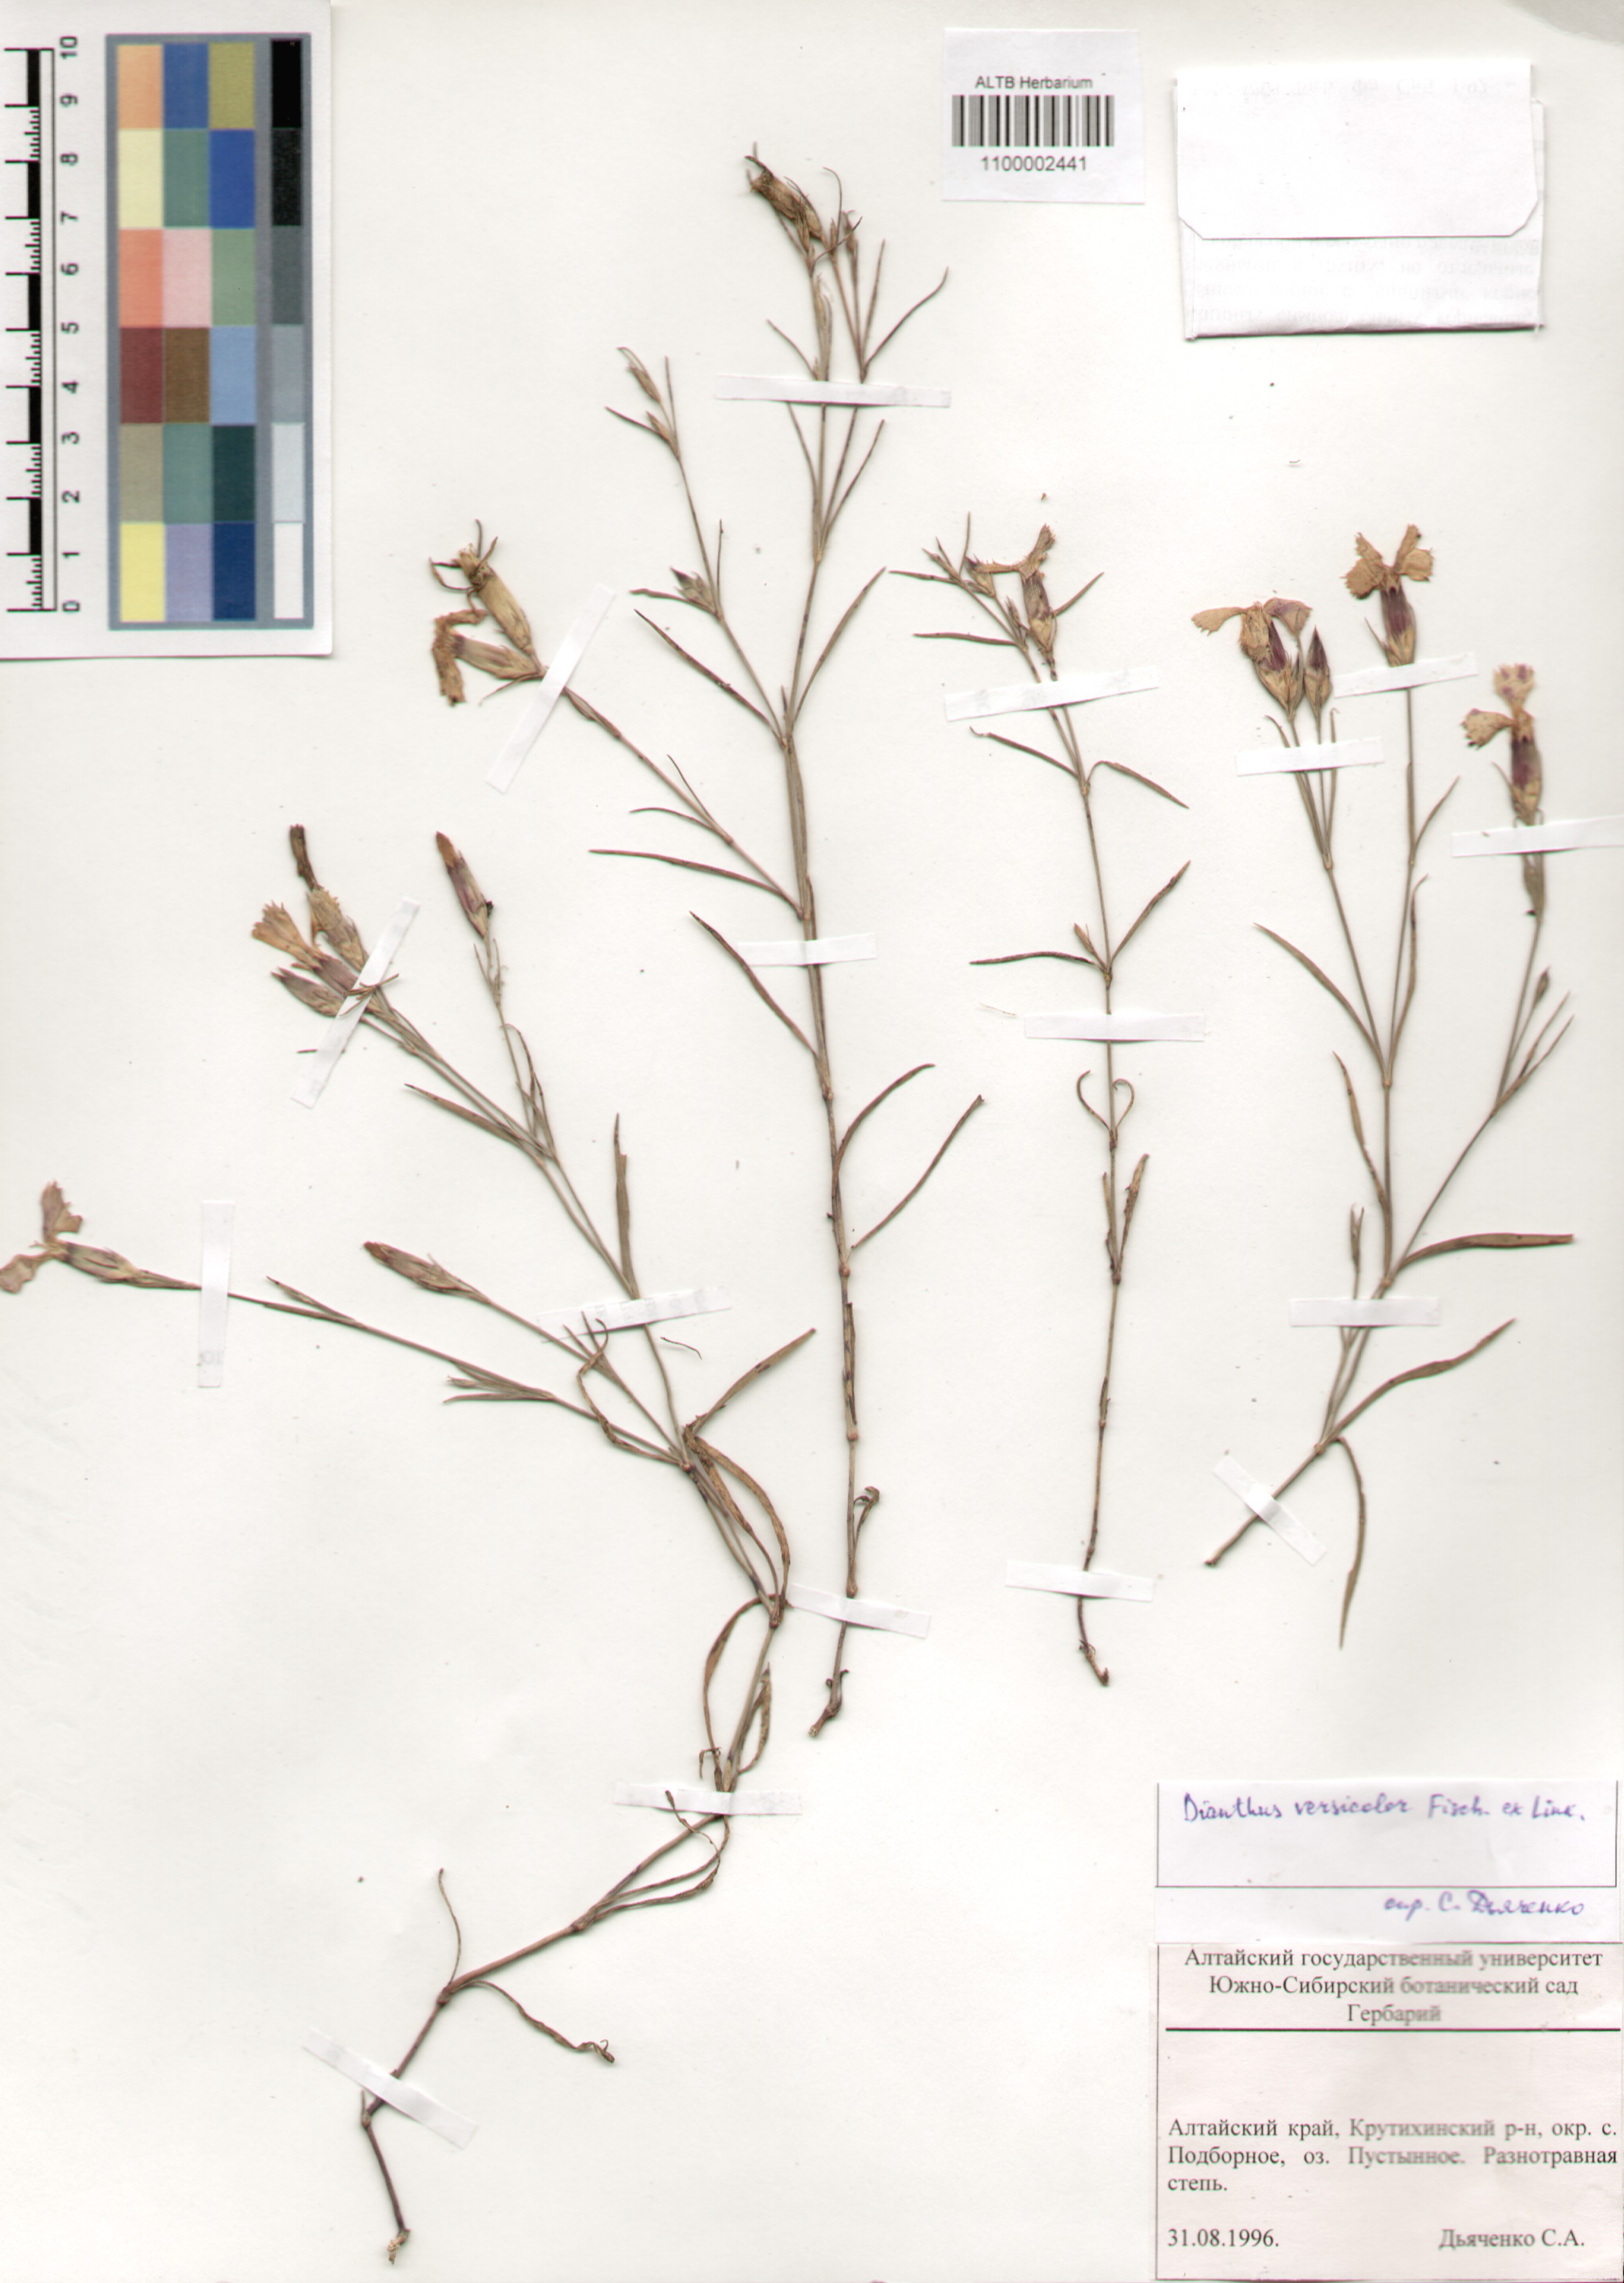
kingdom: Plantae
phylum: Tracheophyta
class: Magnoliopsida
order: Caryophyllales
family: Caryophyllaceae
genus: Dianthus
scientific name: Dianthus chinensis
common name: Rainbow pink
